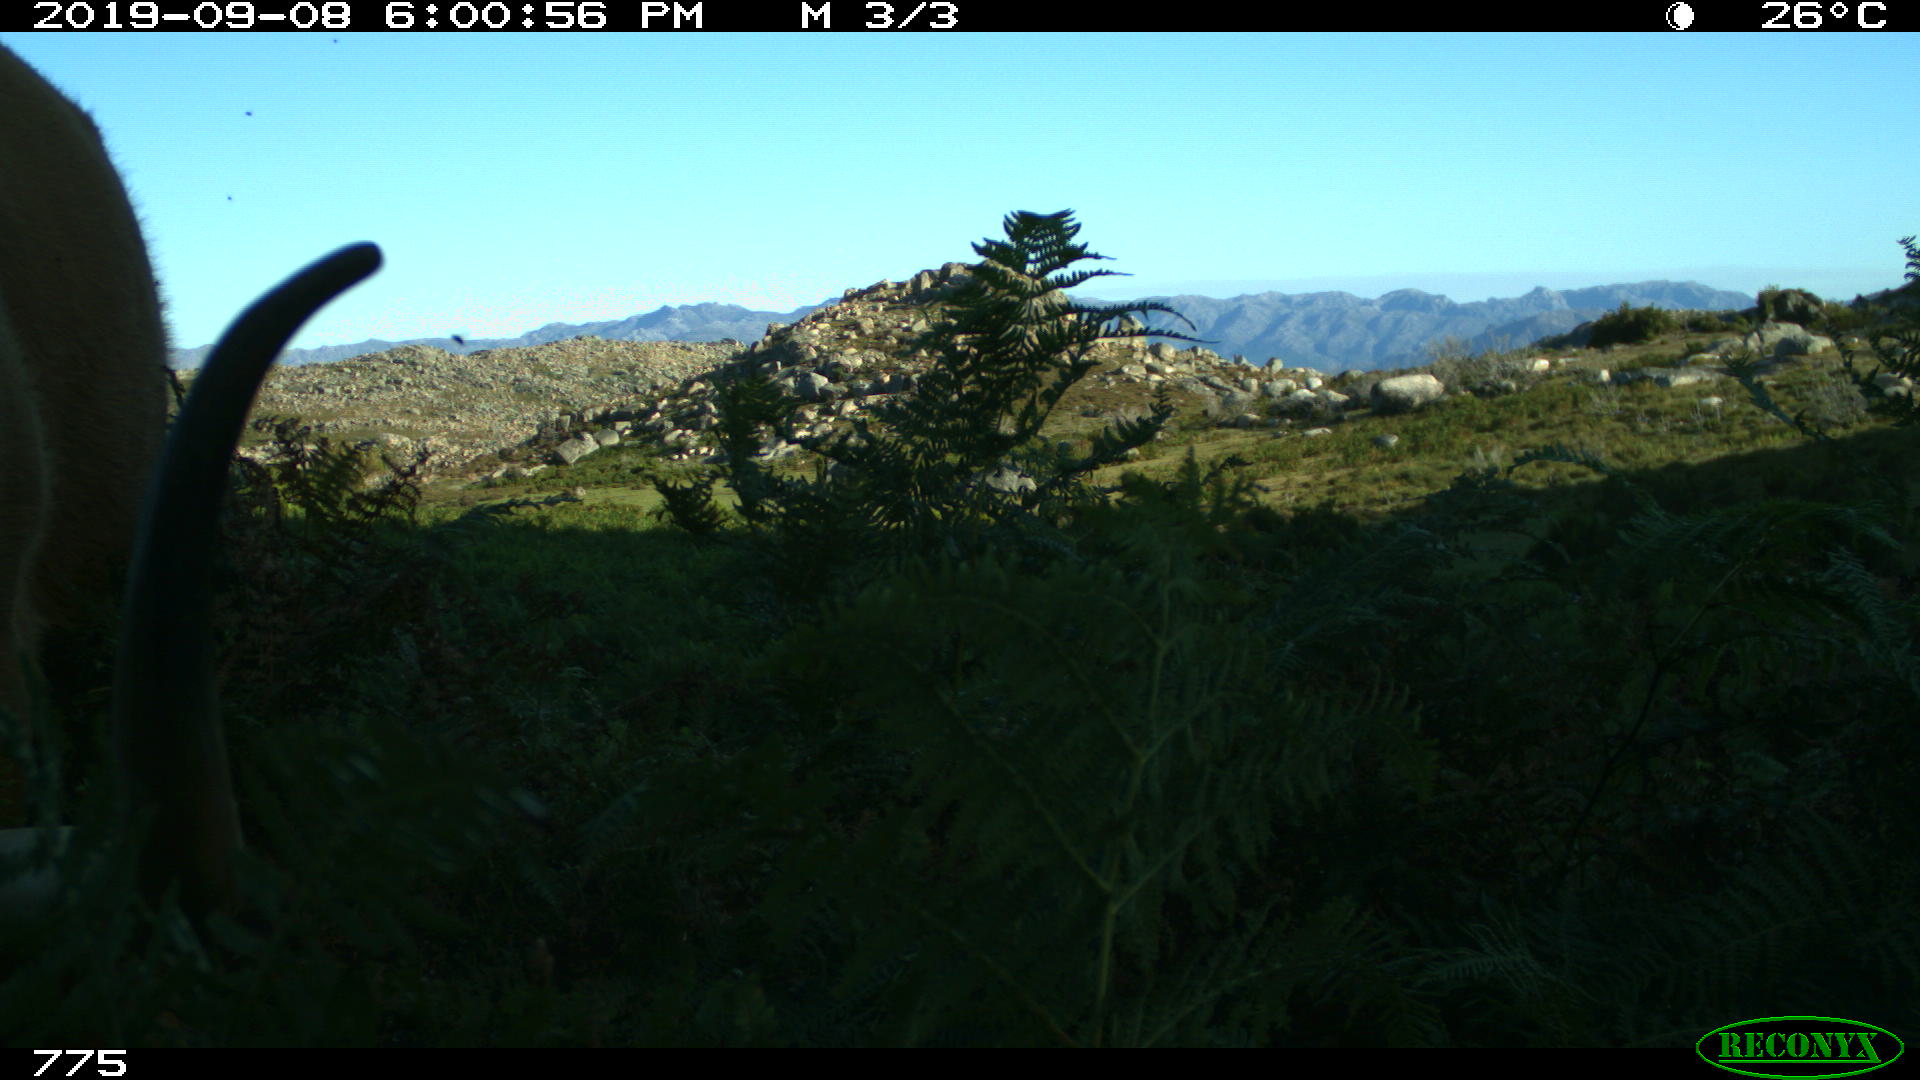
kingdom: Animalia
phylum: Chordata
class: Mammalia
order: Artiodactyla
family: Bovidae
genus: Bos
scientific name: Bos taurus
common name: Domesticated cattle
